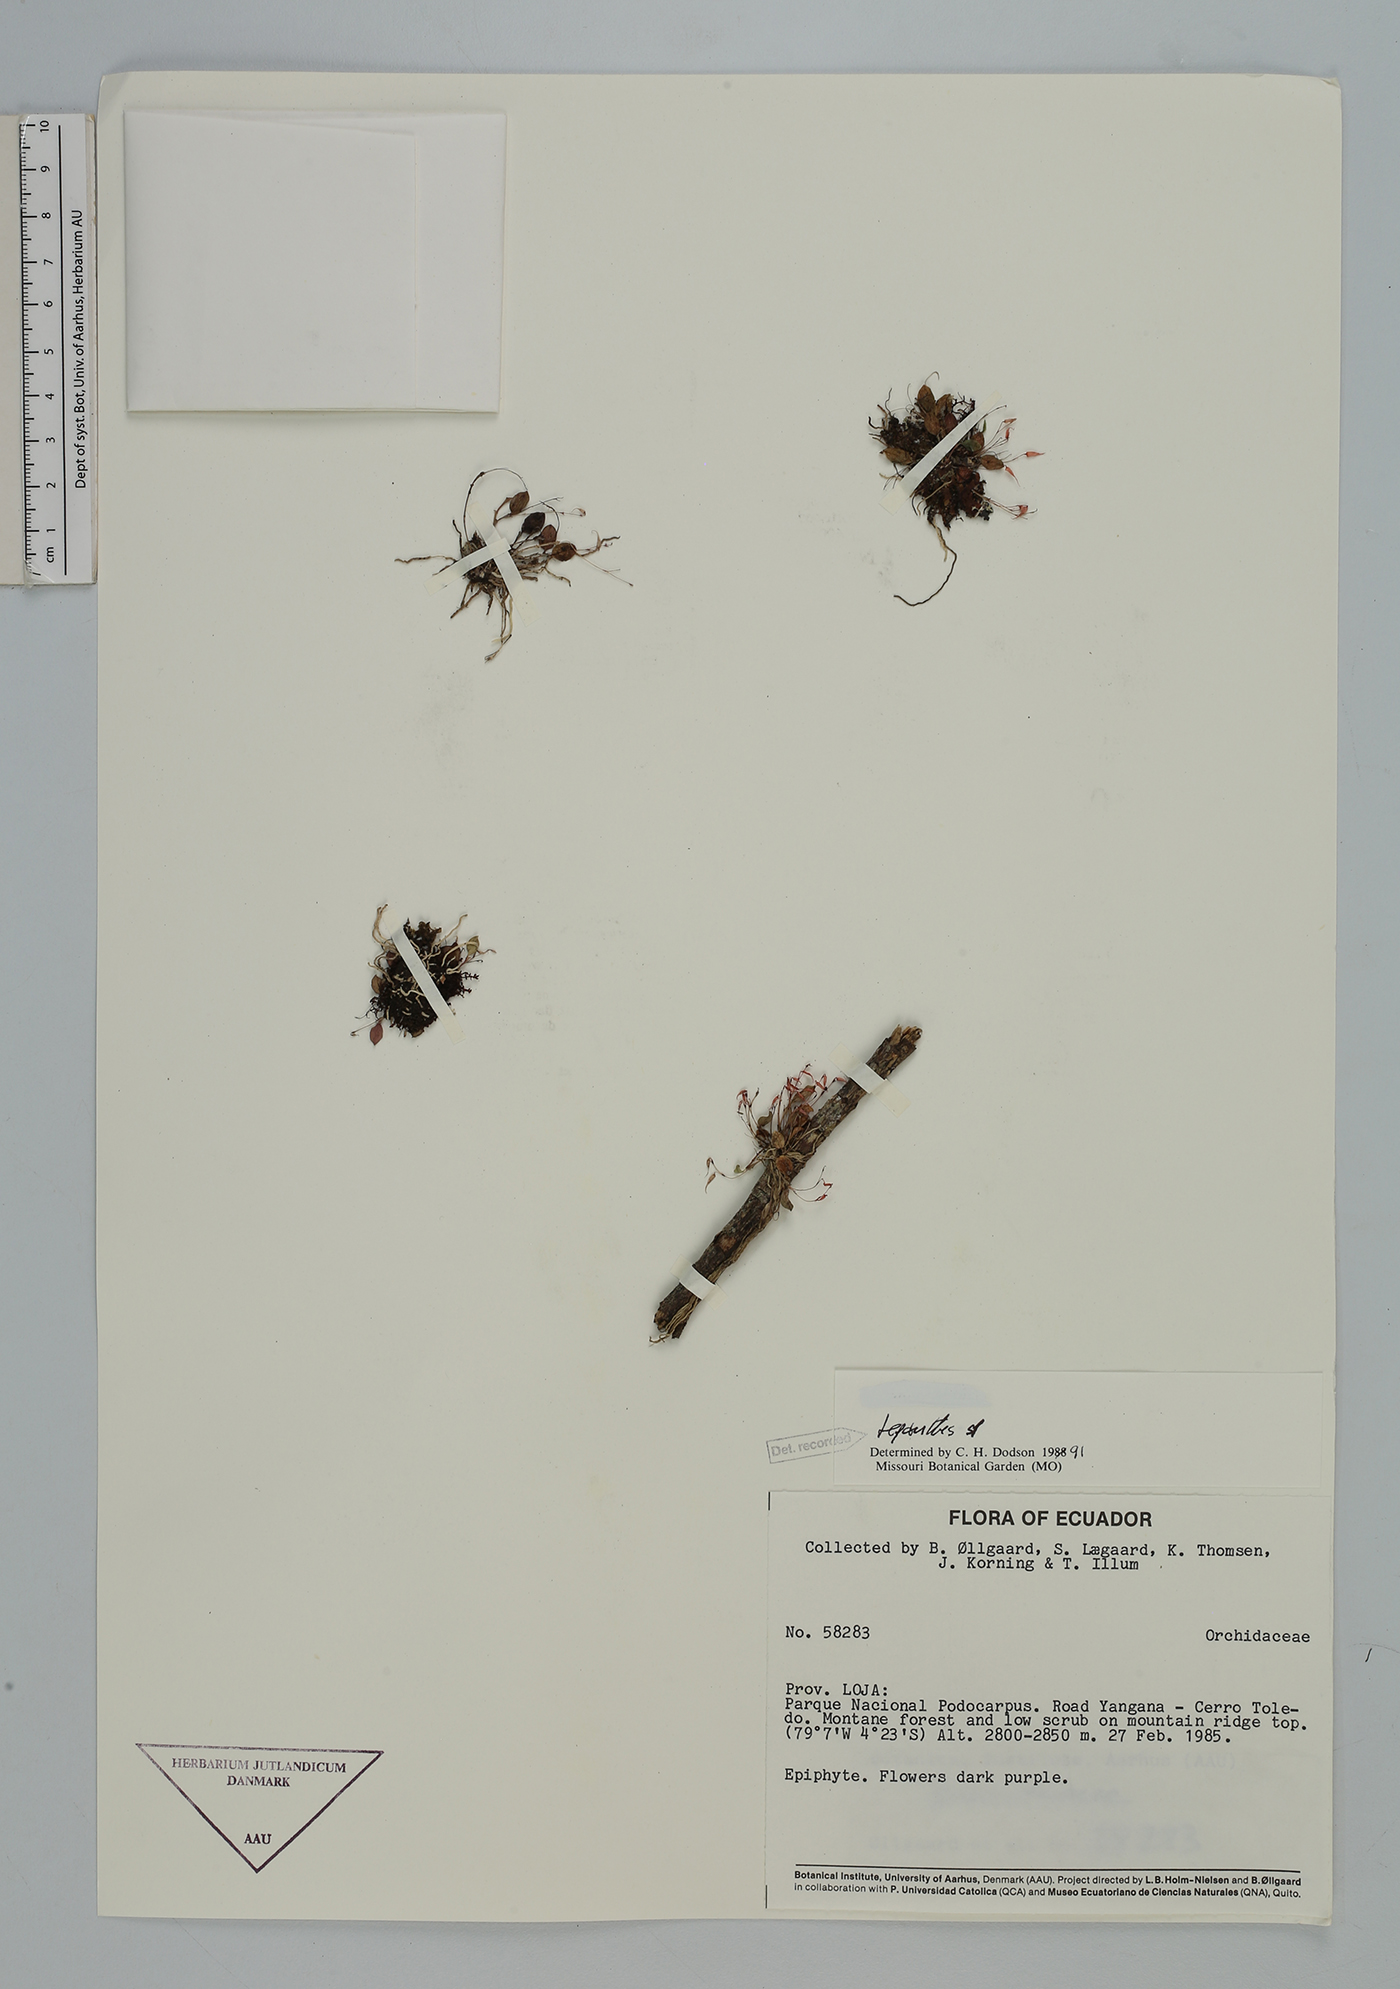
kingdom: Plantae
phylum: Tracheophyta
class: Liliopsida
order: Asparagales
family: Orchidaceae
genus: Lepanthes
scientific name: Lepanthes
